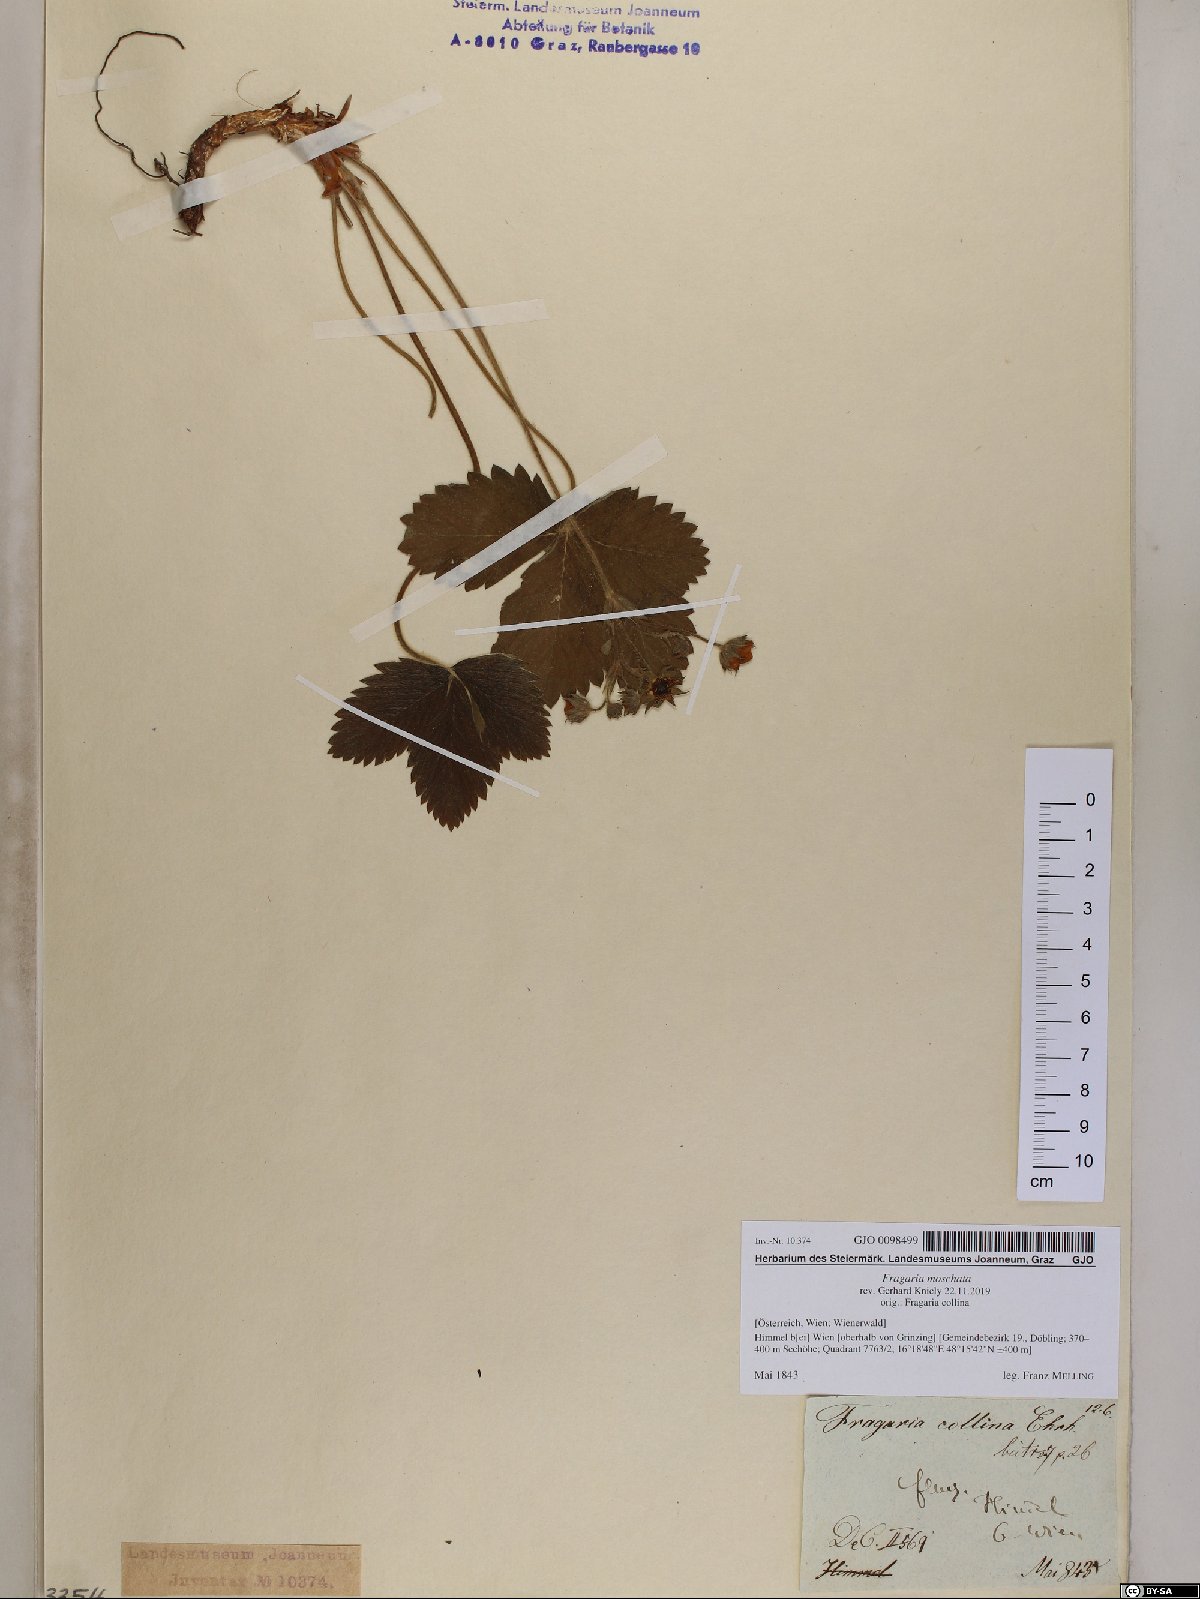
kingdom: Plantae
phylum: Tracheophyta
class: Magnoliopsida
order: Rosales
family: Rosaceae
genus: Fragaria
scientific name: Fragaria moschata
